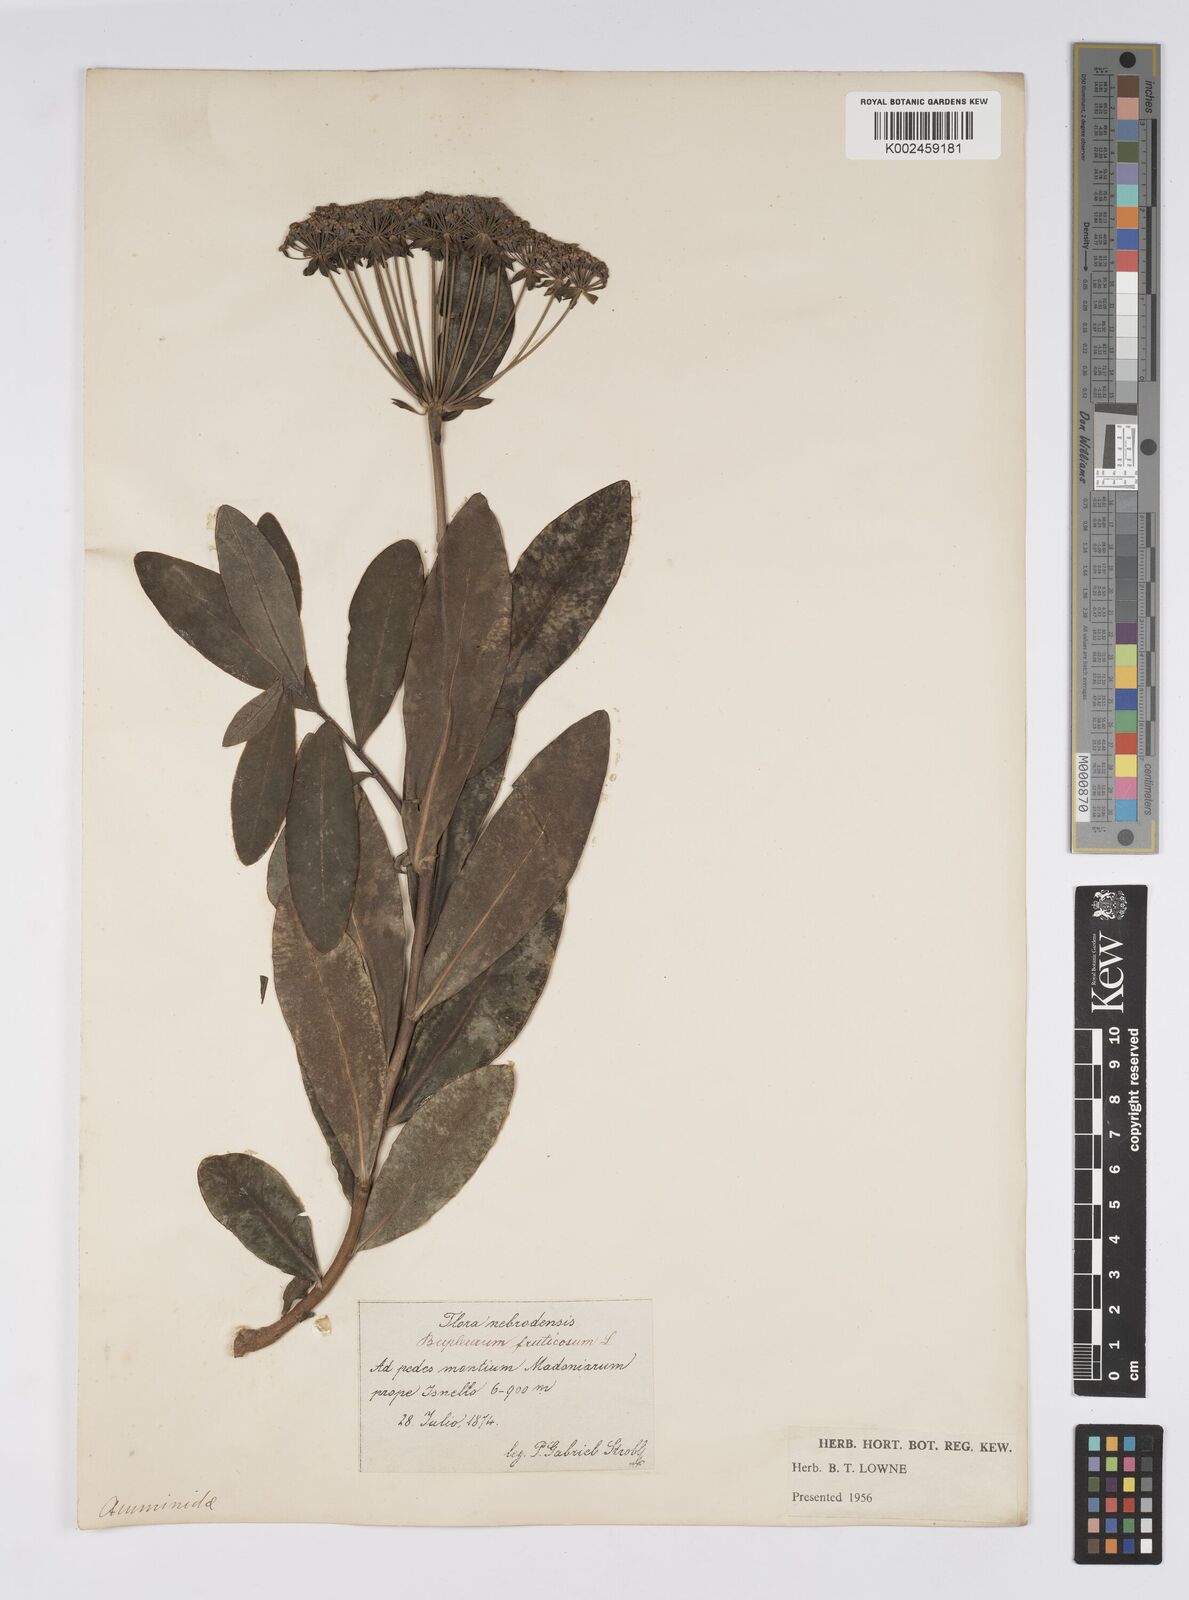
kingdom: Plantae
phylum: Tracheophyta
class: Magnoliopsida
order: Apiales
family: Apiaceae
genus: Bupleurum
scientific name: Bupleurum fruticosum
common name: Shrubby hare's-ear
